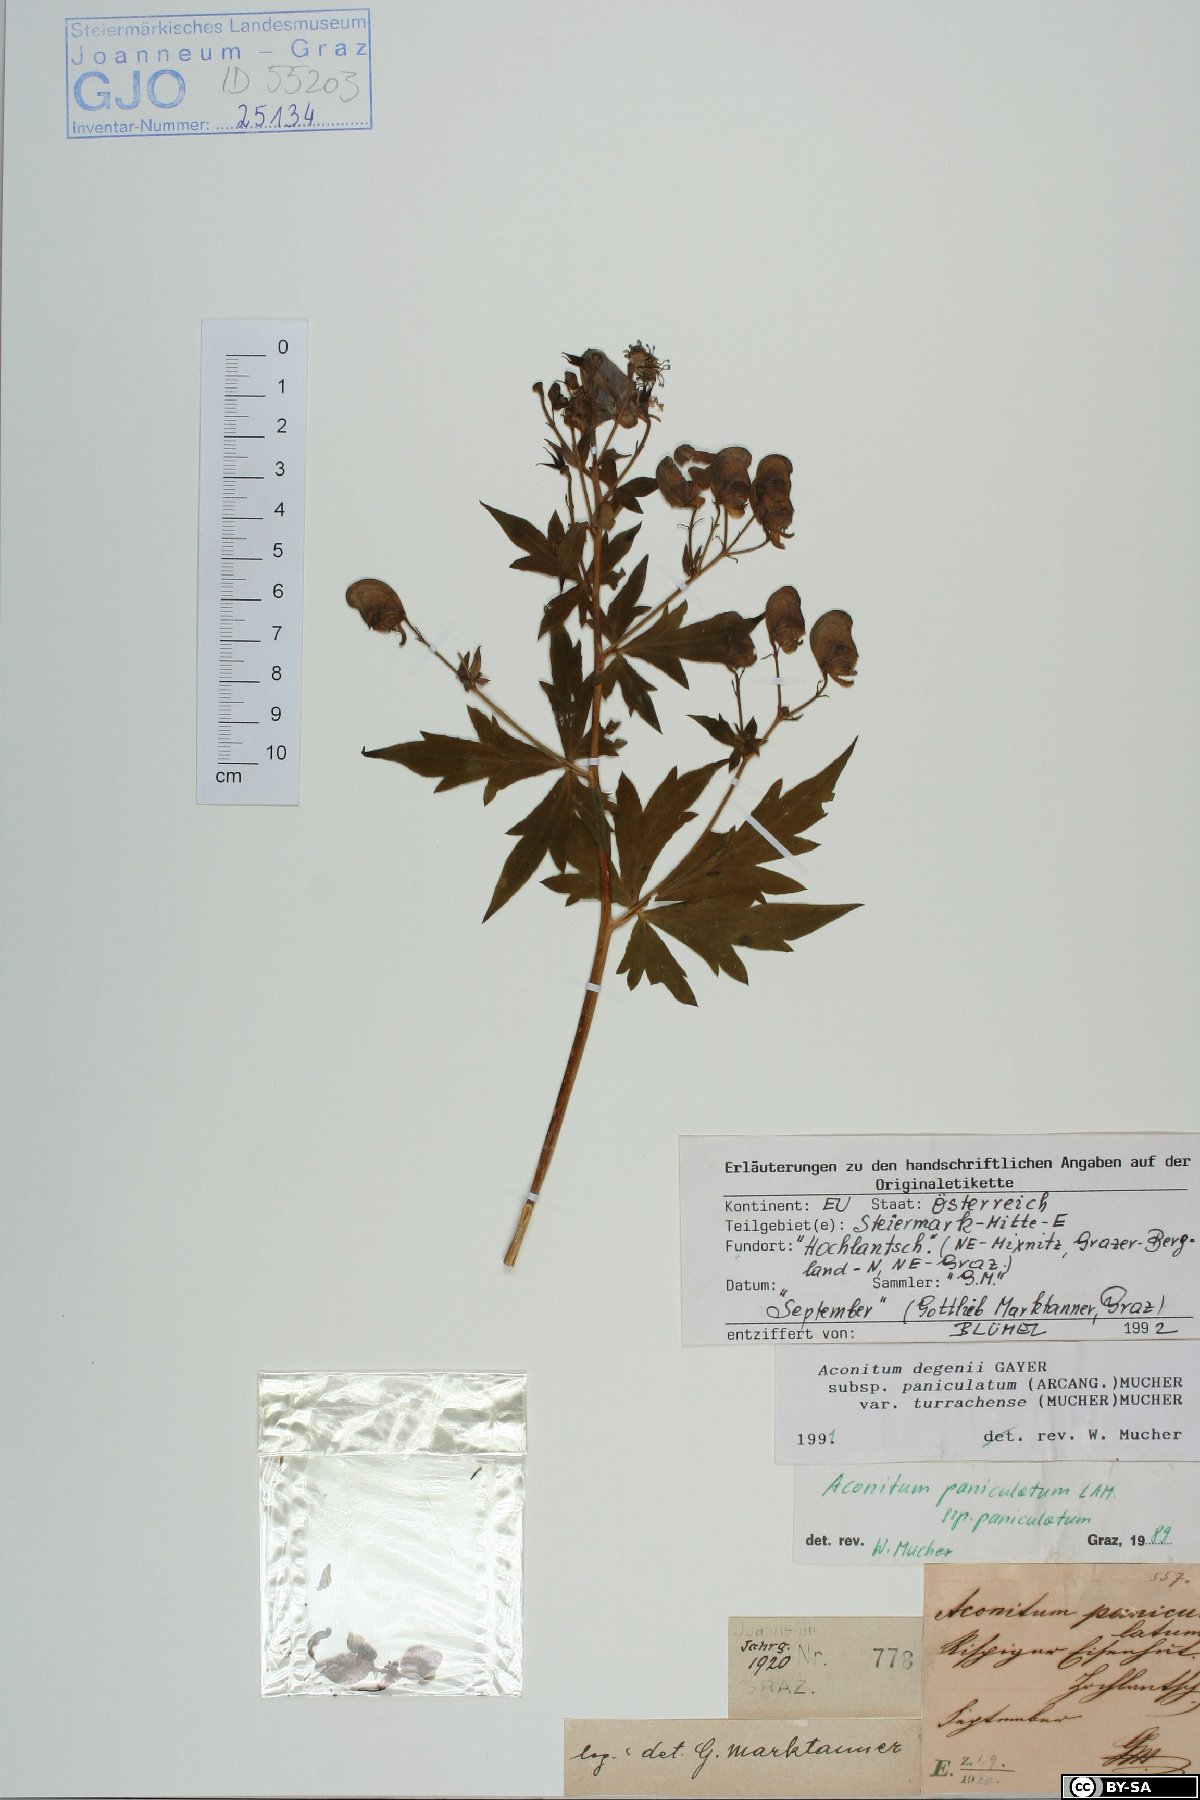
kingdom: Plantae
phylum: Tracheophyta
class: Magnoliopsida
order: Ranunculales
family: Ranunculaceae
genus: Aconitum
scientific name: Aconitum degenii
